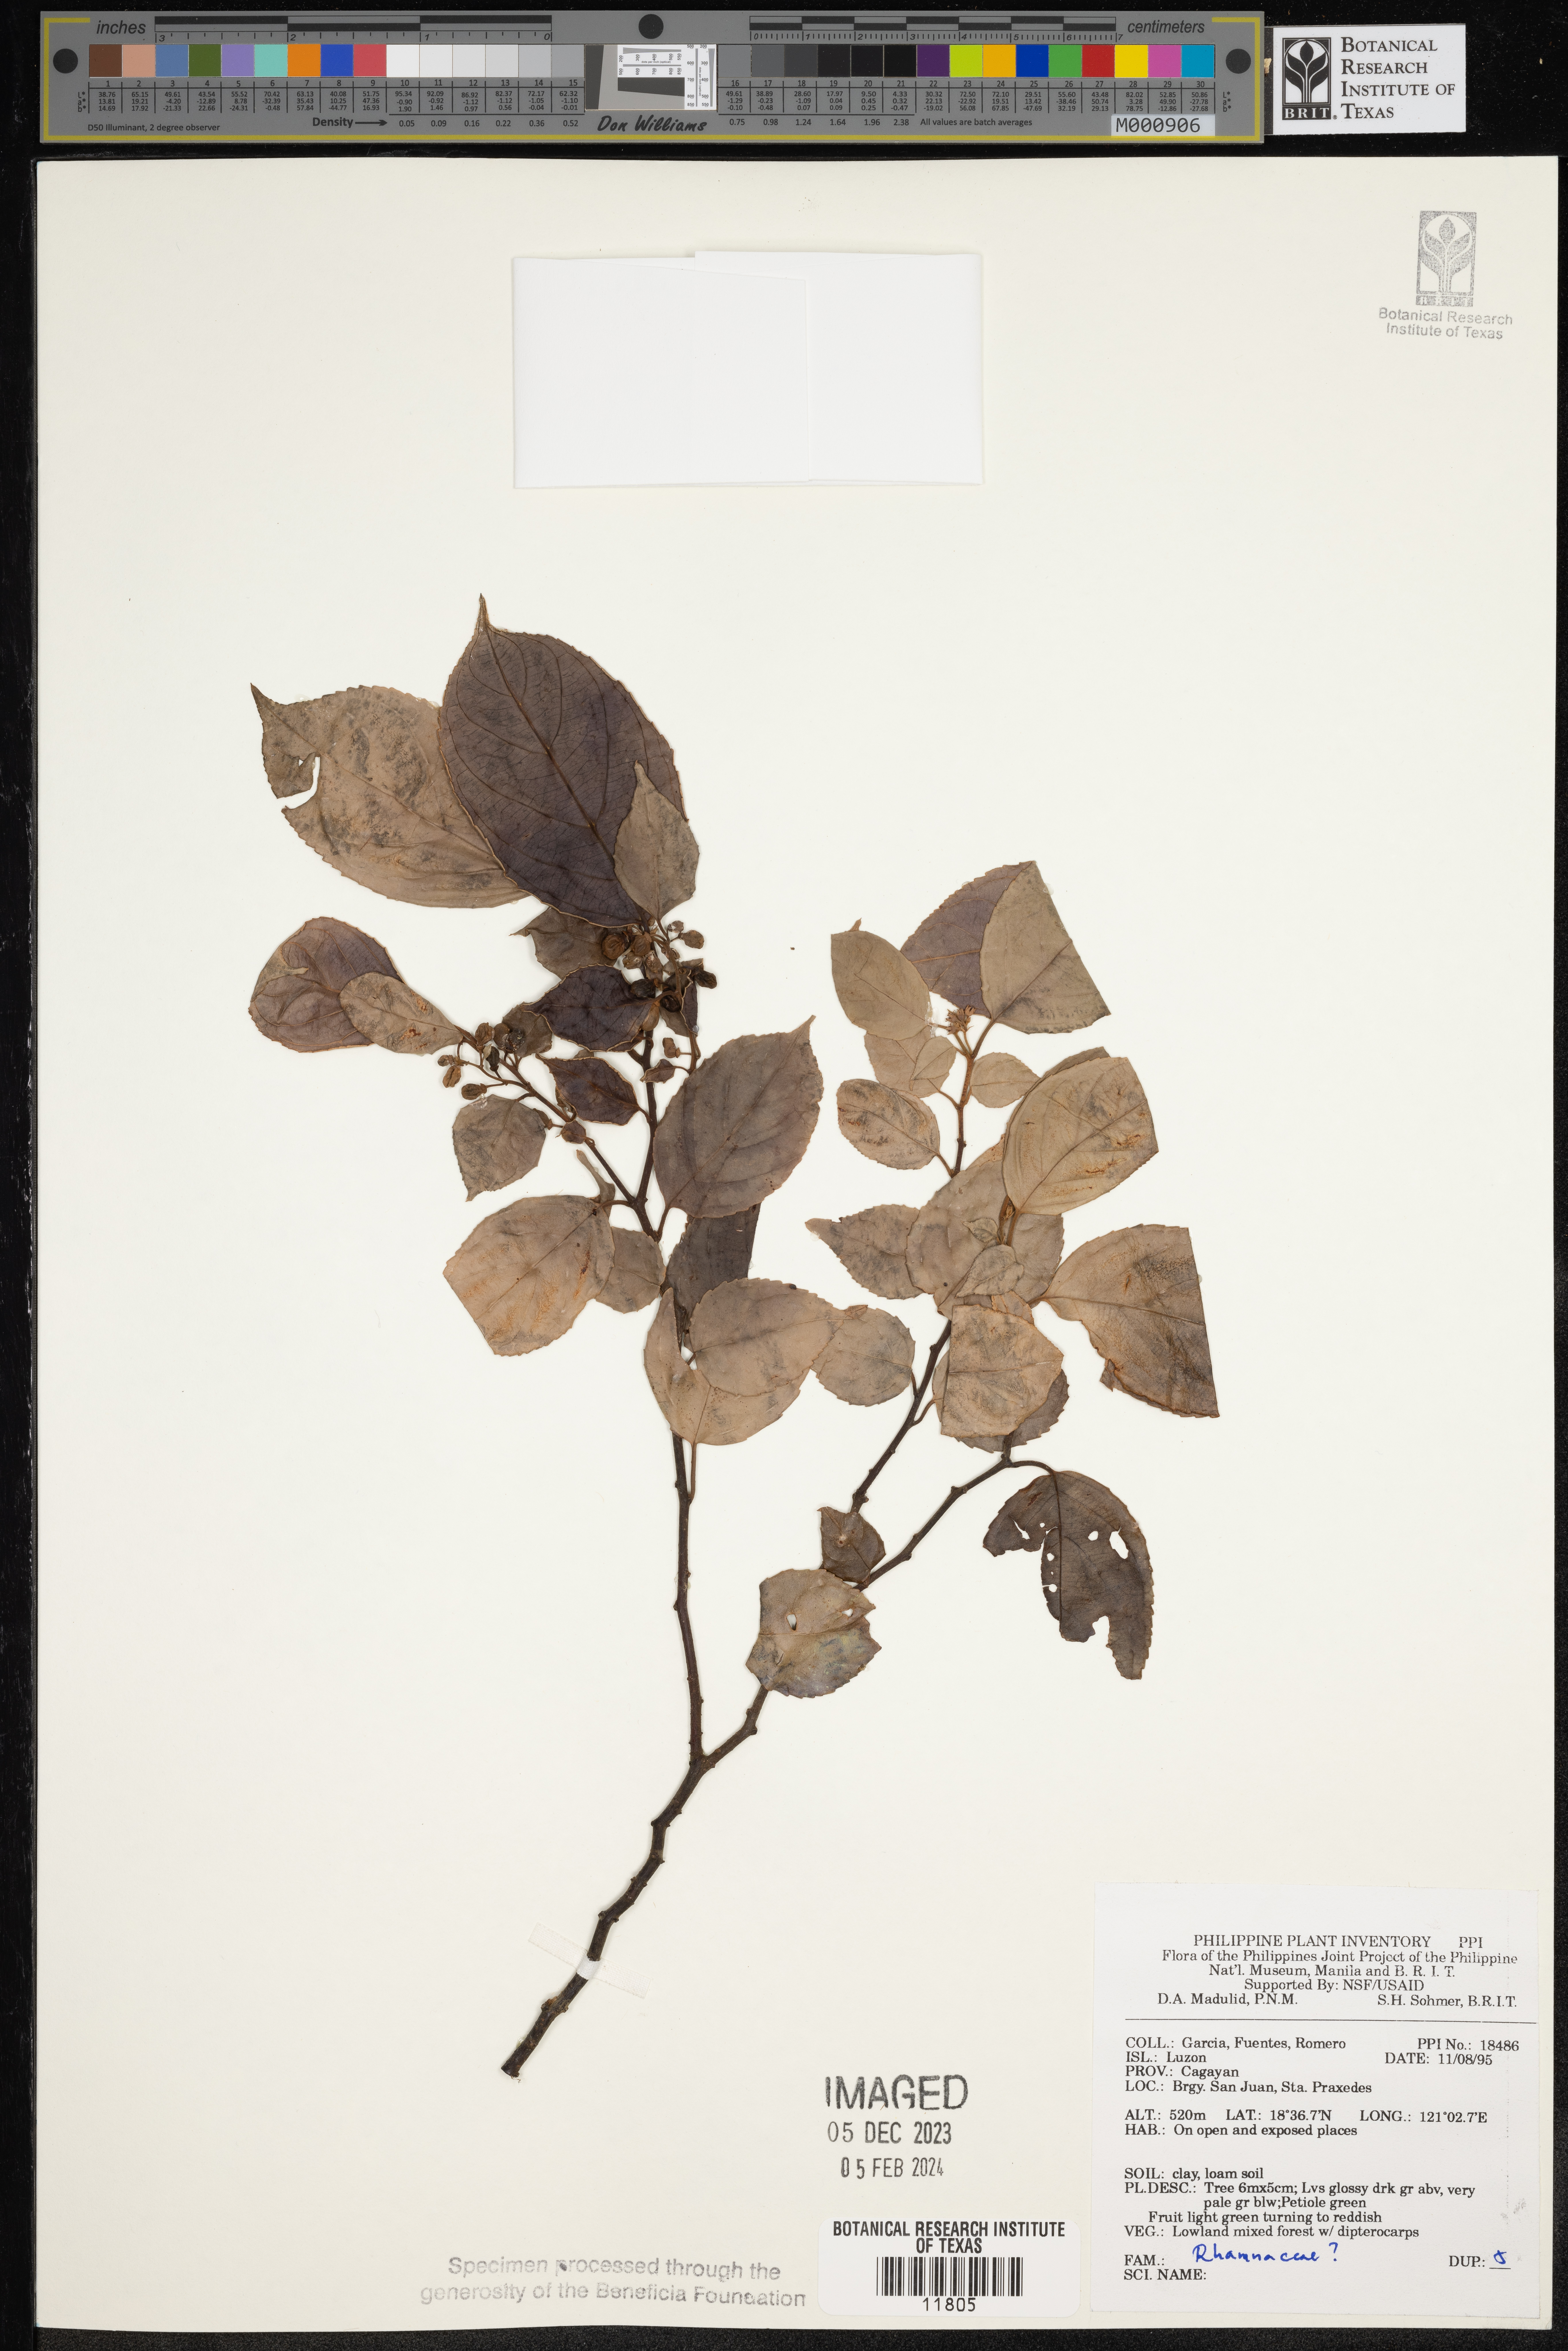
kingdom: Plantae
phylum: Tracheophyta
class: Magnoliopsida
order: Rosales
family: Rhamnaceae
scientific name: Rhamnaceae
